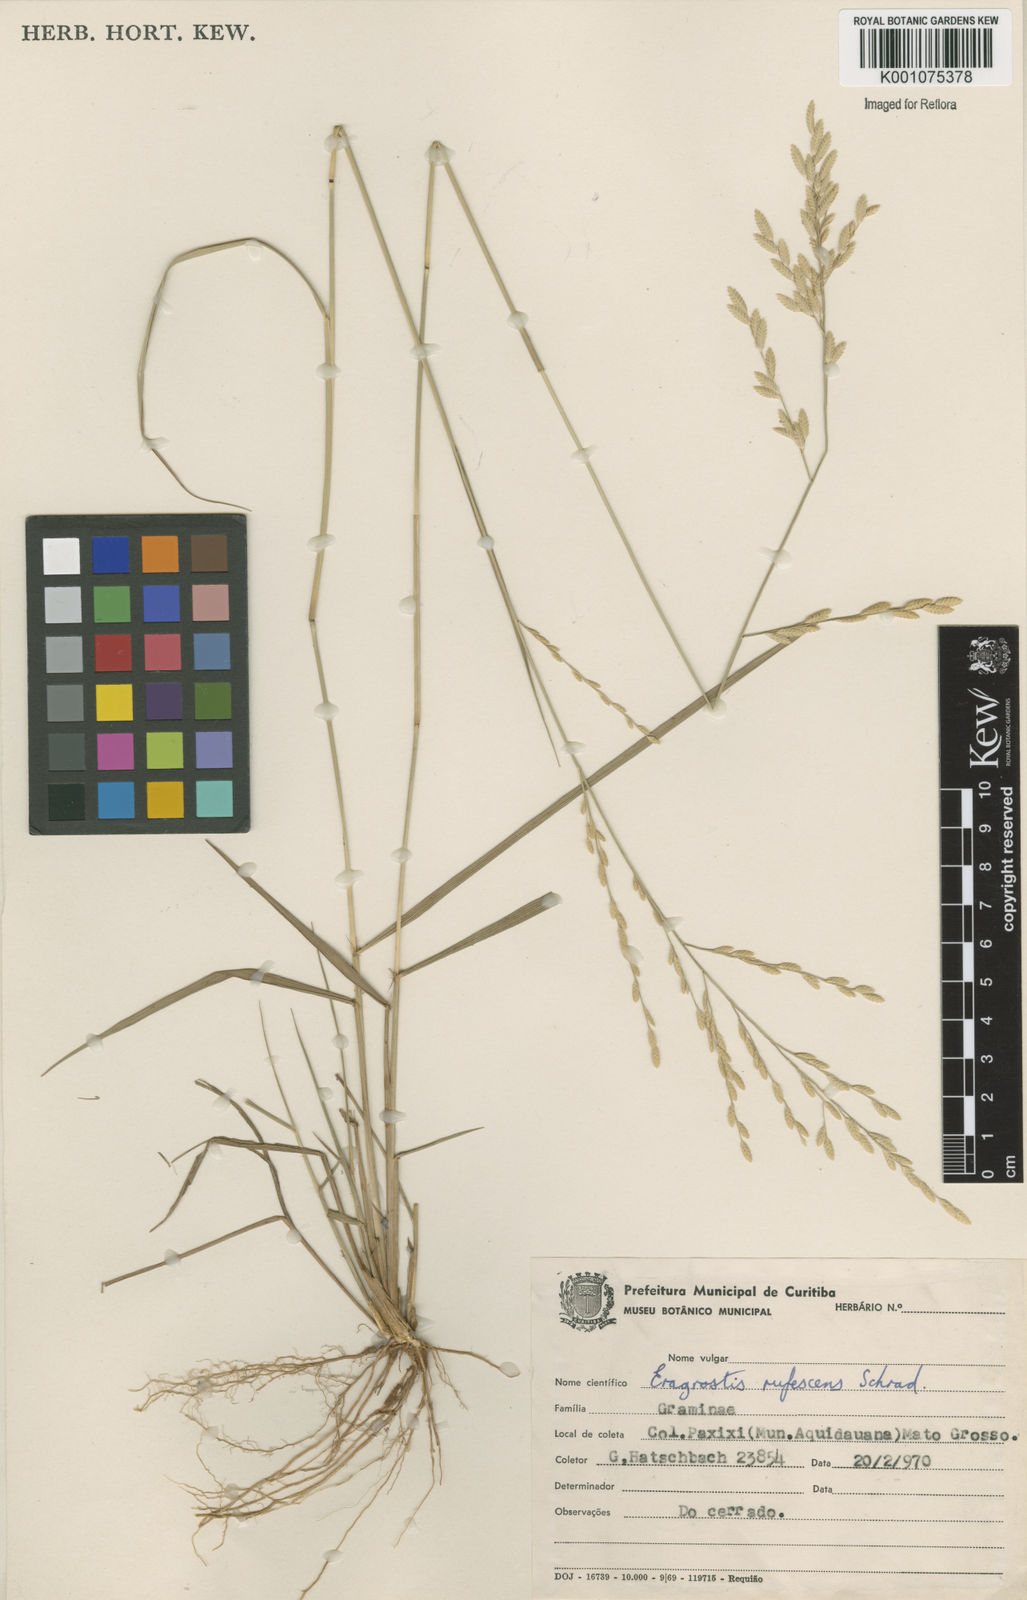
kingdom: Plantae
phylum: Tracheophyta
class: Liliopsida
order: Poales
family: Poaceae
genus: Eragrostis
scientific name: Eragrostis solida
